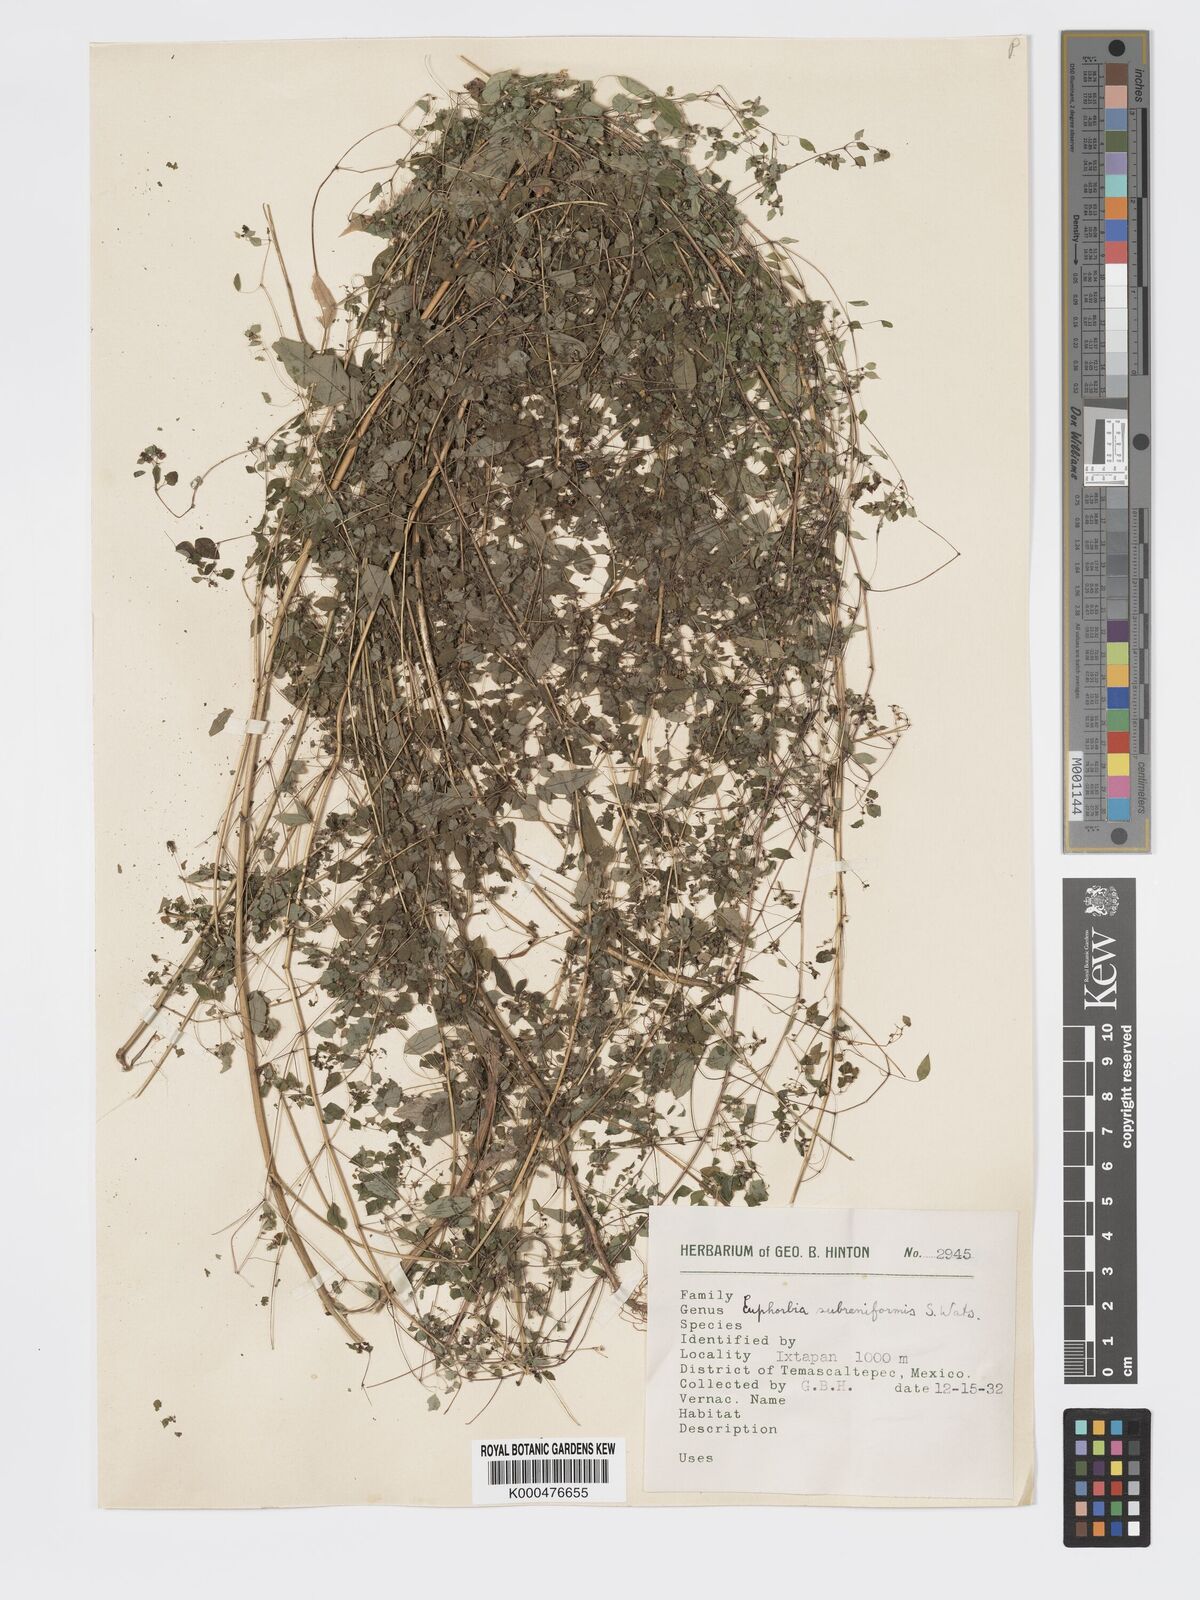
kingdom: Plantae
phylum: Tracheophyta
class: Magnoliopsida
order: Malpighiales
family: Euphorbiaceae
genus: Euphorbia
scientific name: Euphorbia fimbrilligera
